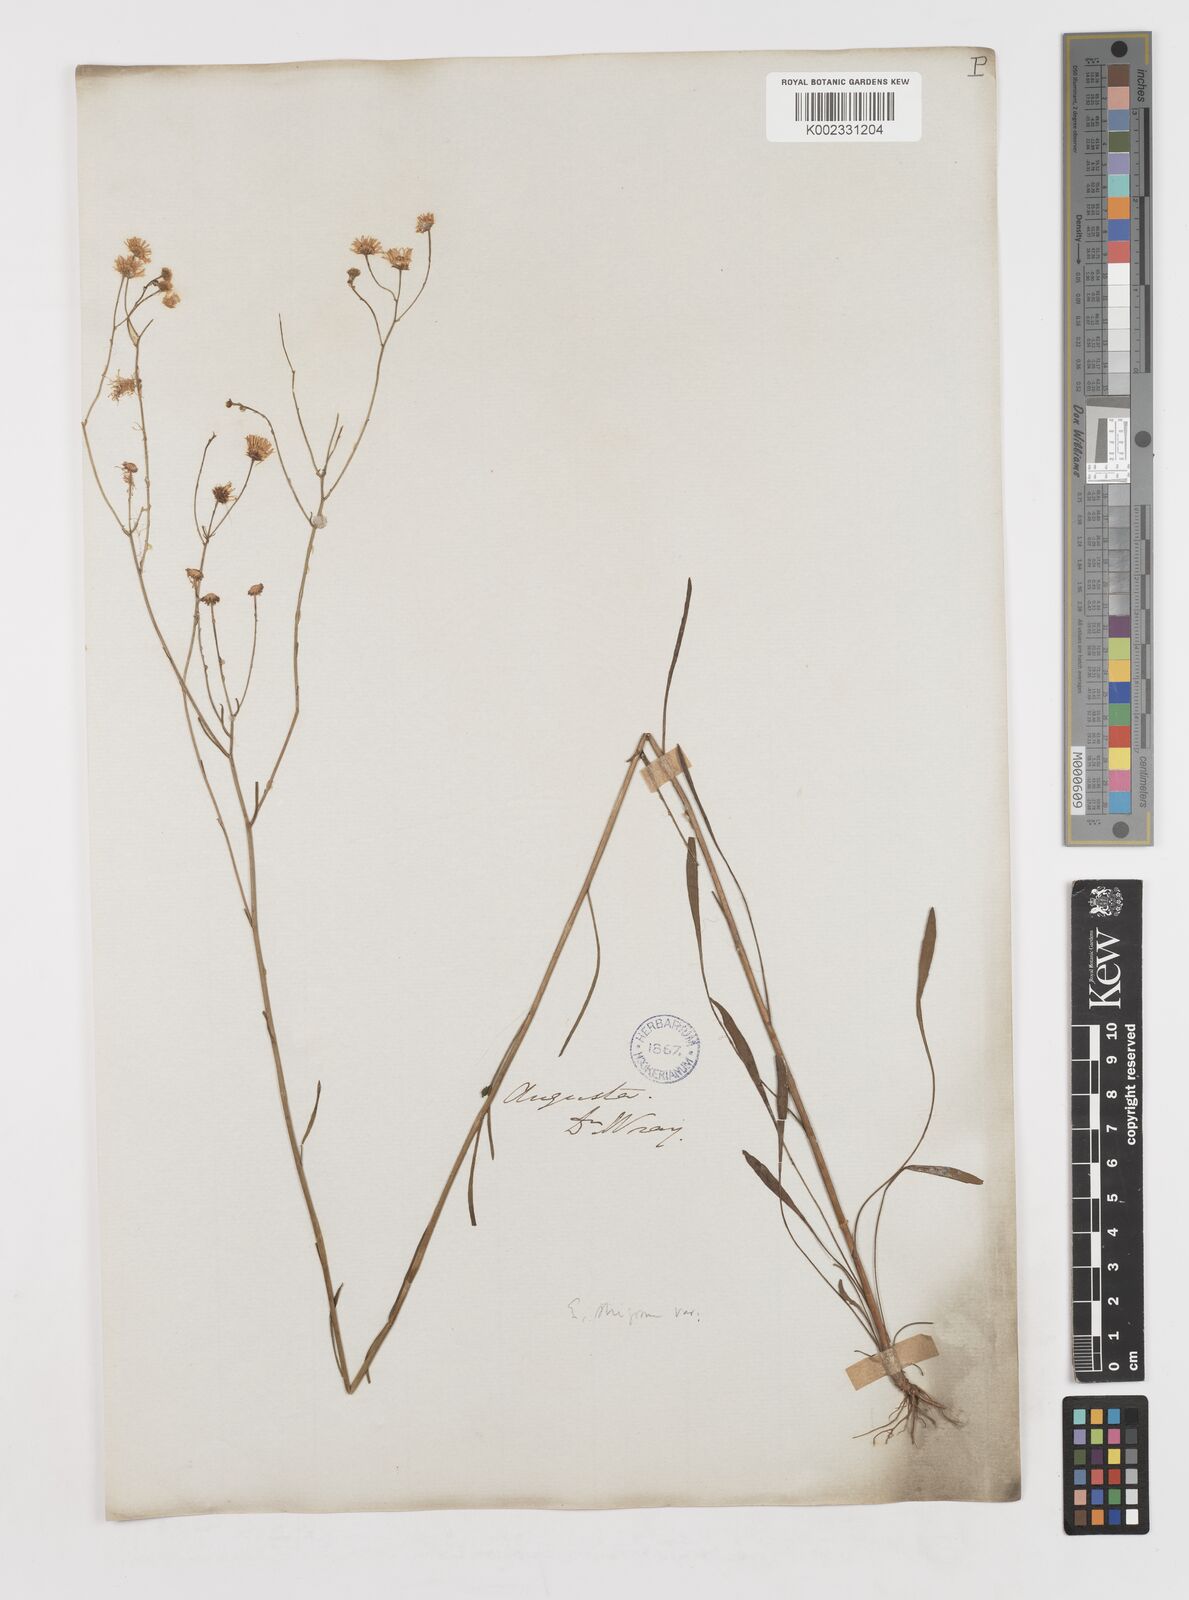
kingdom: Plantae
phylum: Tracheophyta
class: Magnoliopsida
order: Asterales
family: Asteraceae
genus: Erigeron
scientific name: Erigeron
